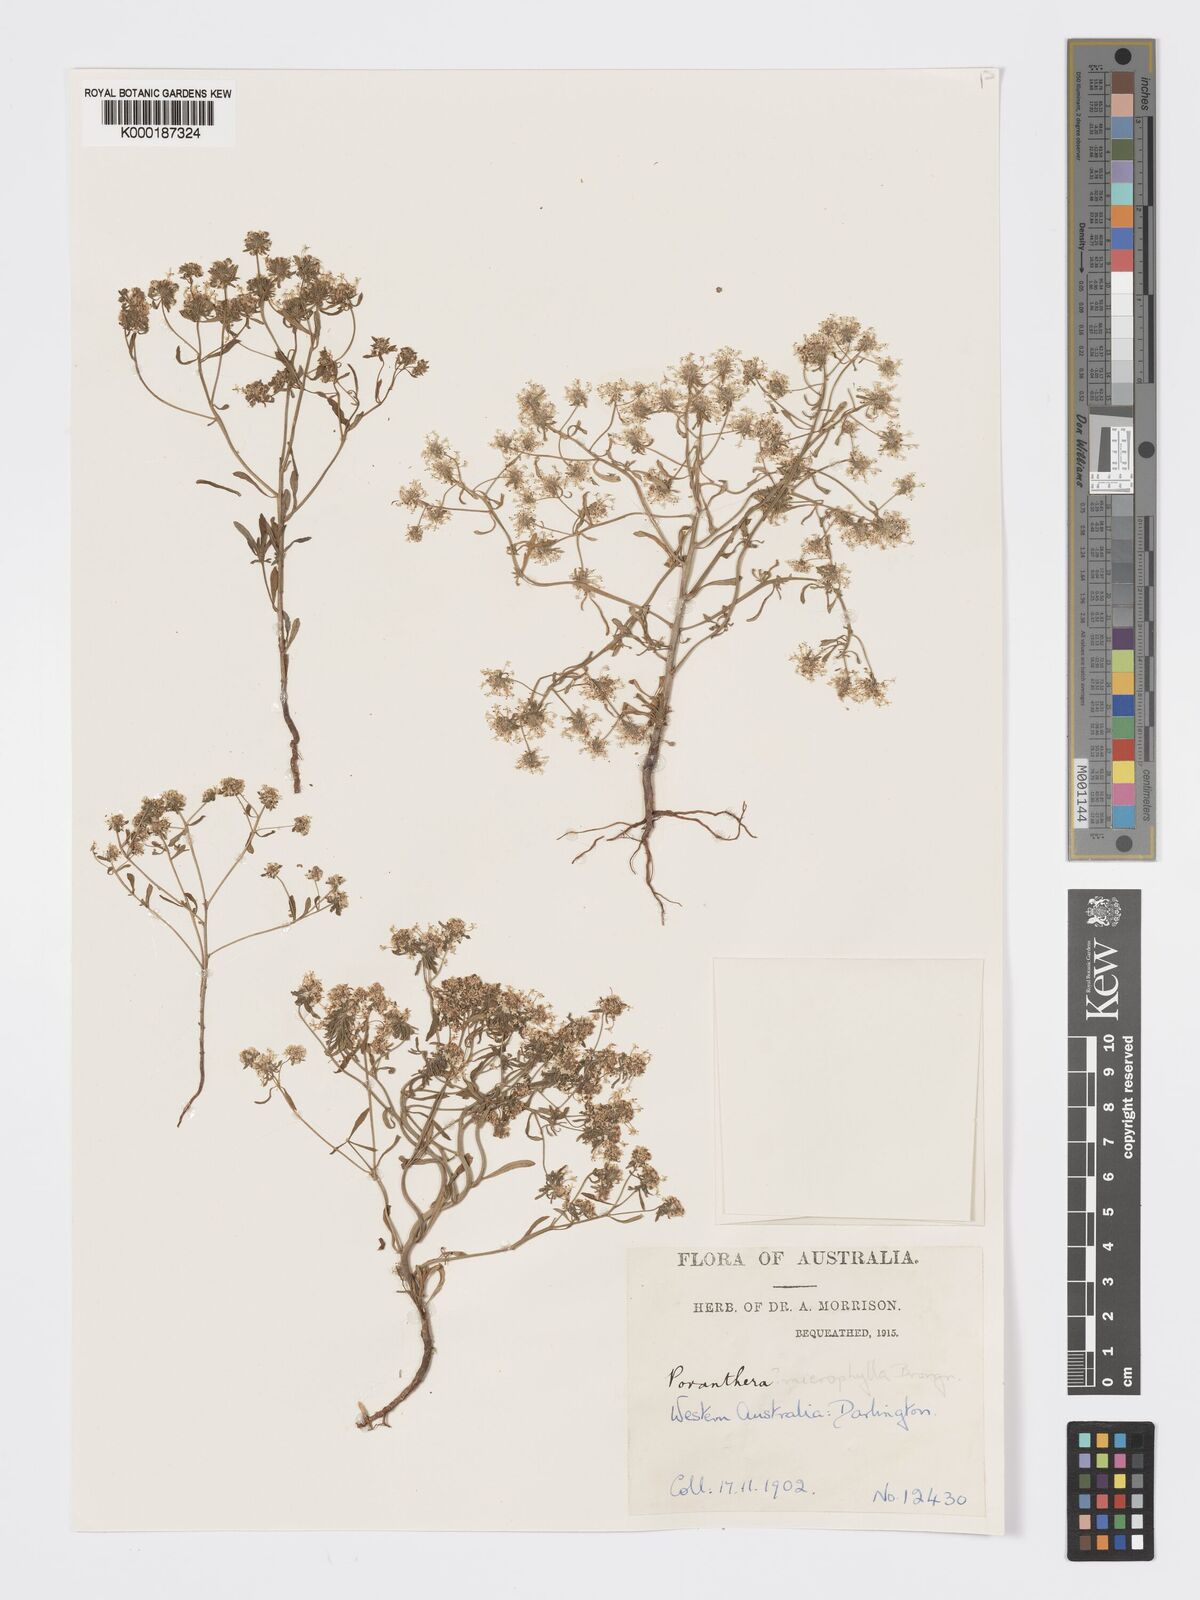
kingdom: Plantae
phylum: Tracheophyta
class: Magnoliopsida
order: Malpighiales
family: Phyllanthaceae
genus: Poranthera
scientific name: Poranthera microphylla
